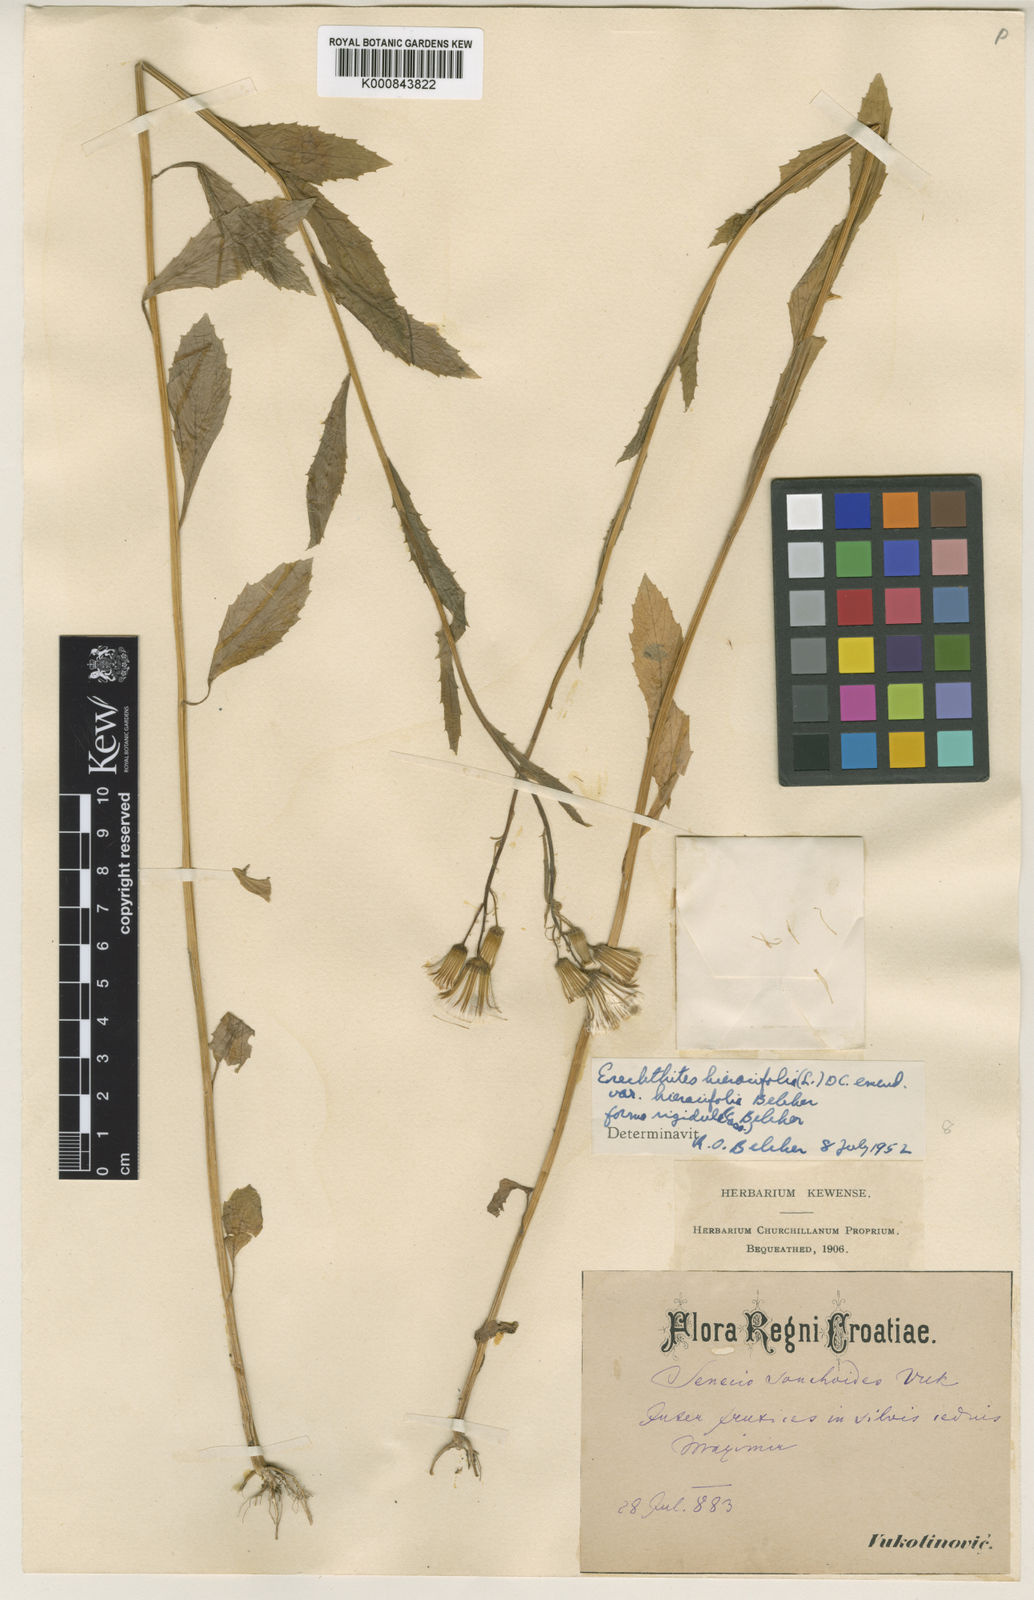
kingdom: Plantae
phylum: Tracheophyta
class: Magnoliopsida
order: Asterales
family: Asteraceae
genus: Erechtites
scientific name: Erechtites hieraciifolius
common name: American burnweed
